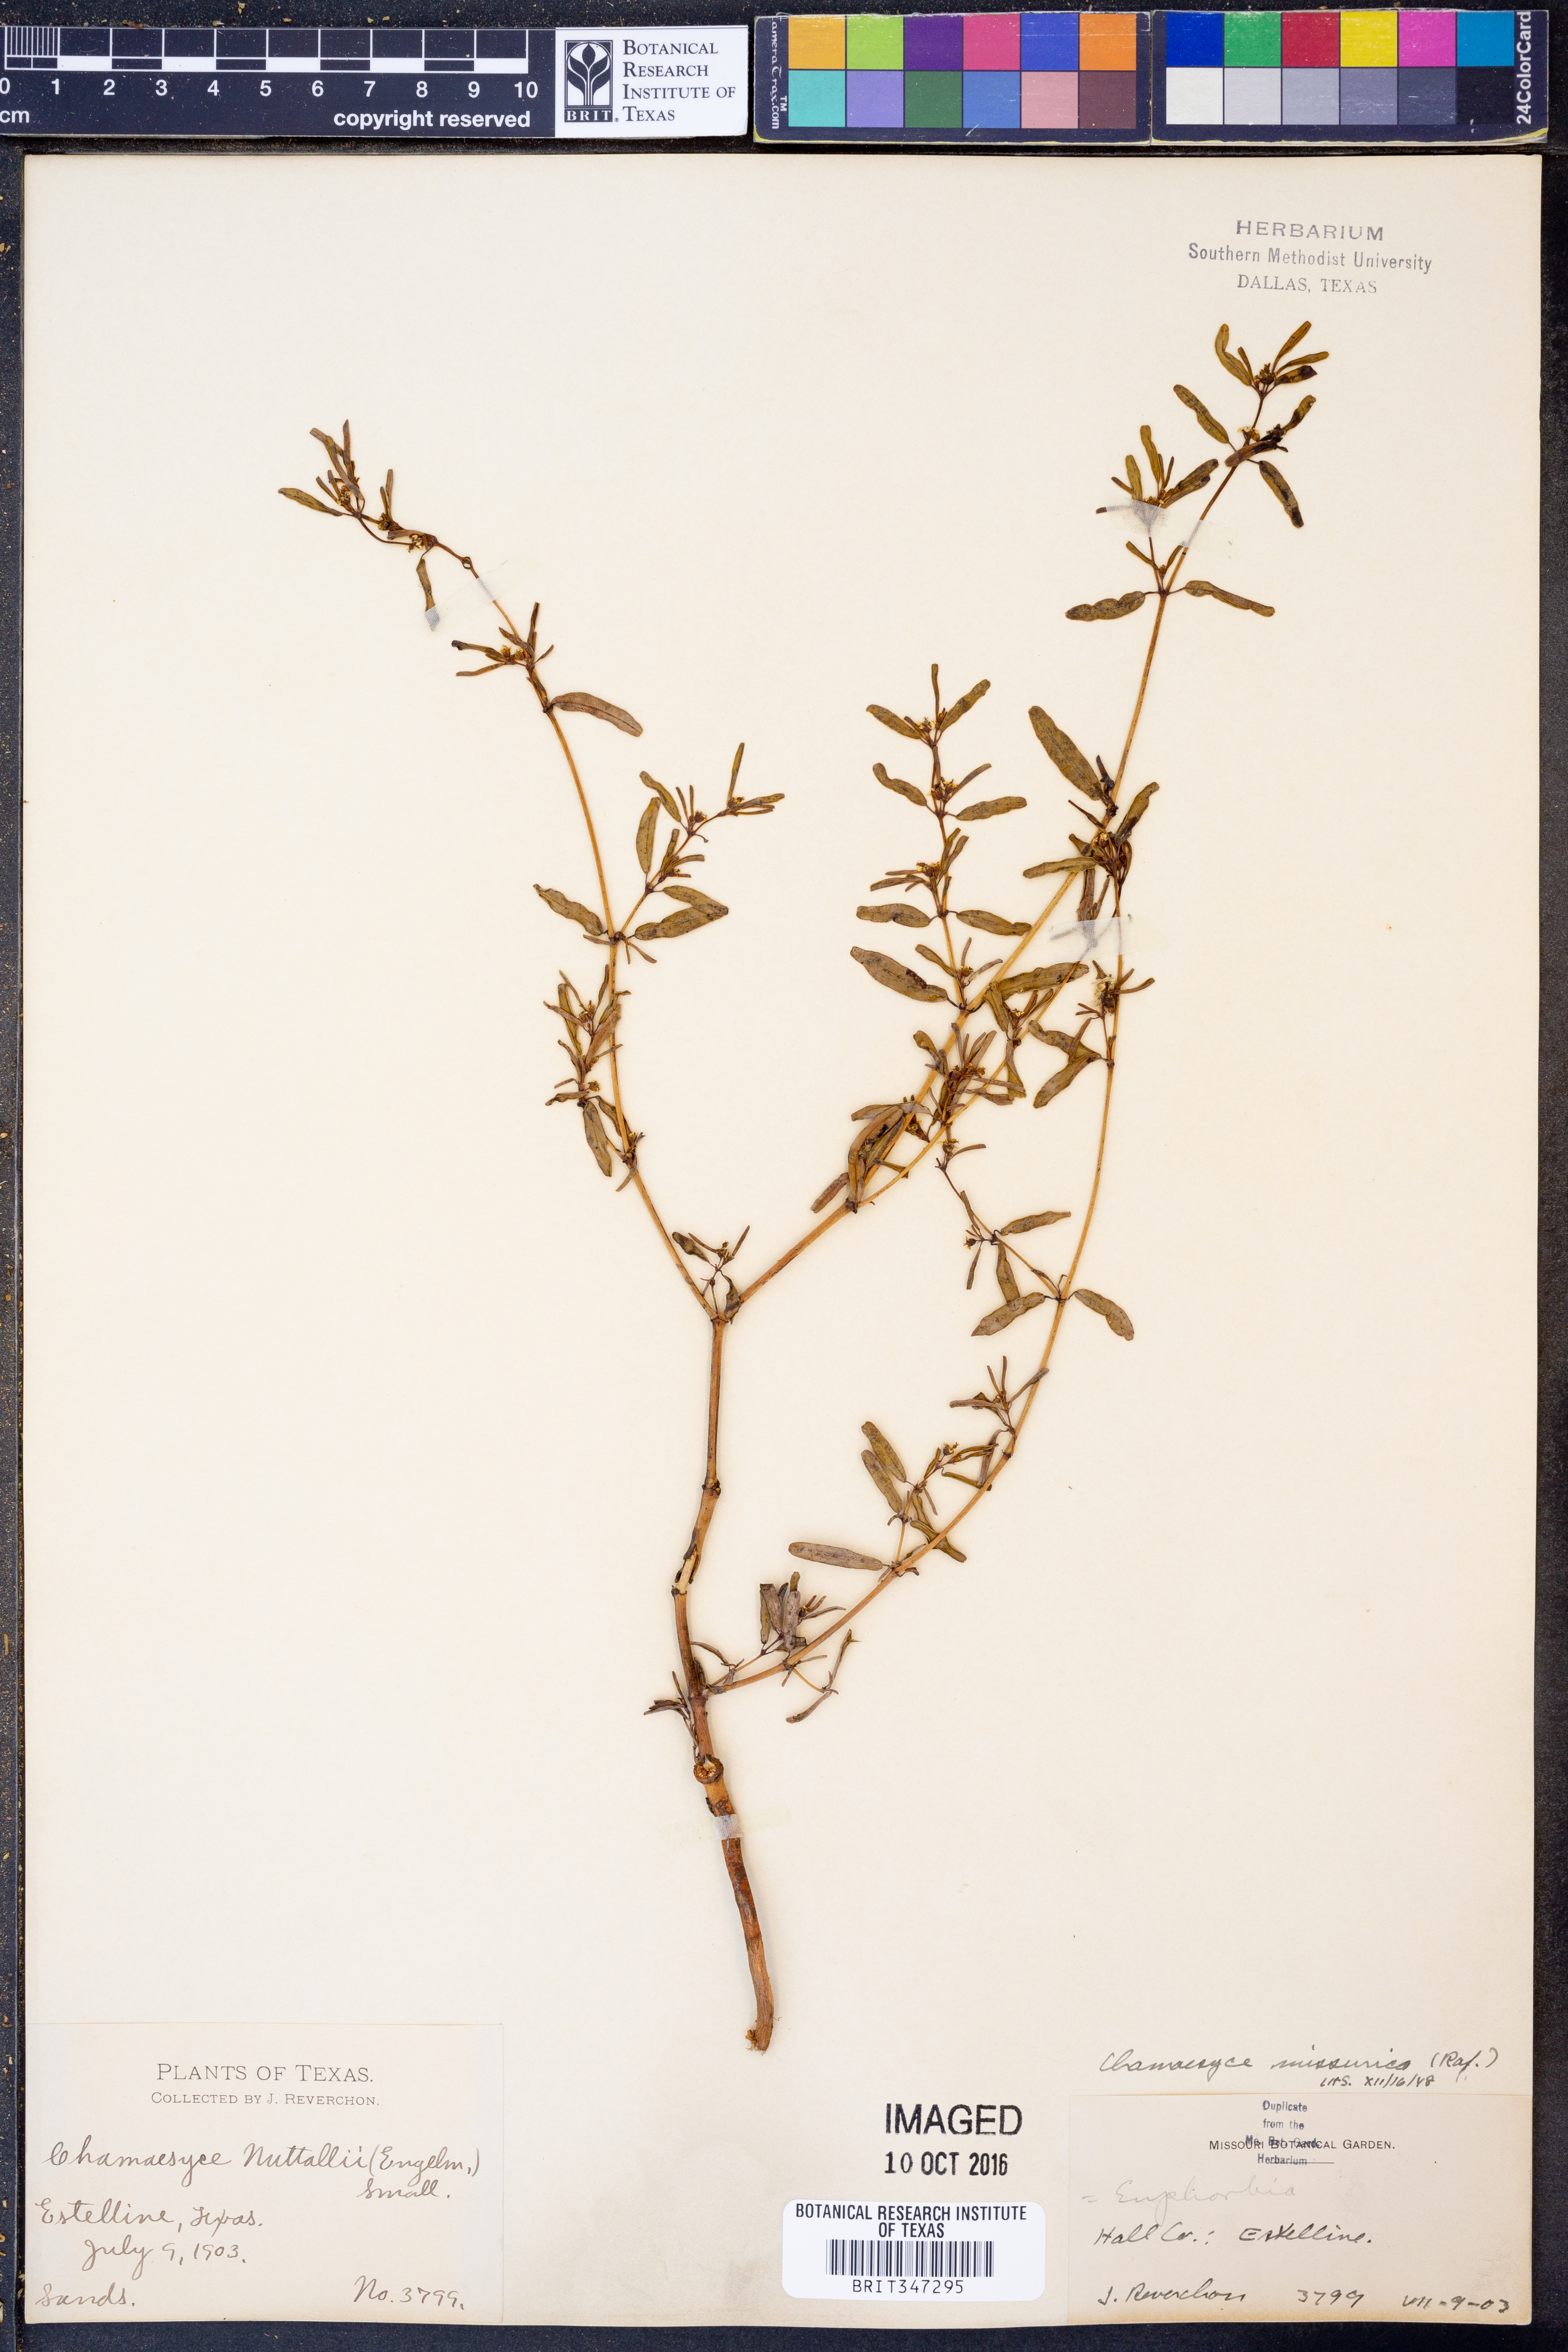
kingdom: Plantae
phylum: Tracheophyta
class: Magnoliopsida
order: Malpighiales
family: Euphorbiaceae
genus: Euphorbia
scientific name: Euphorbia missurica
